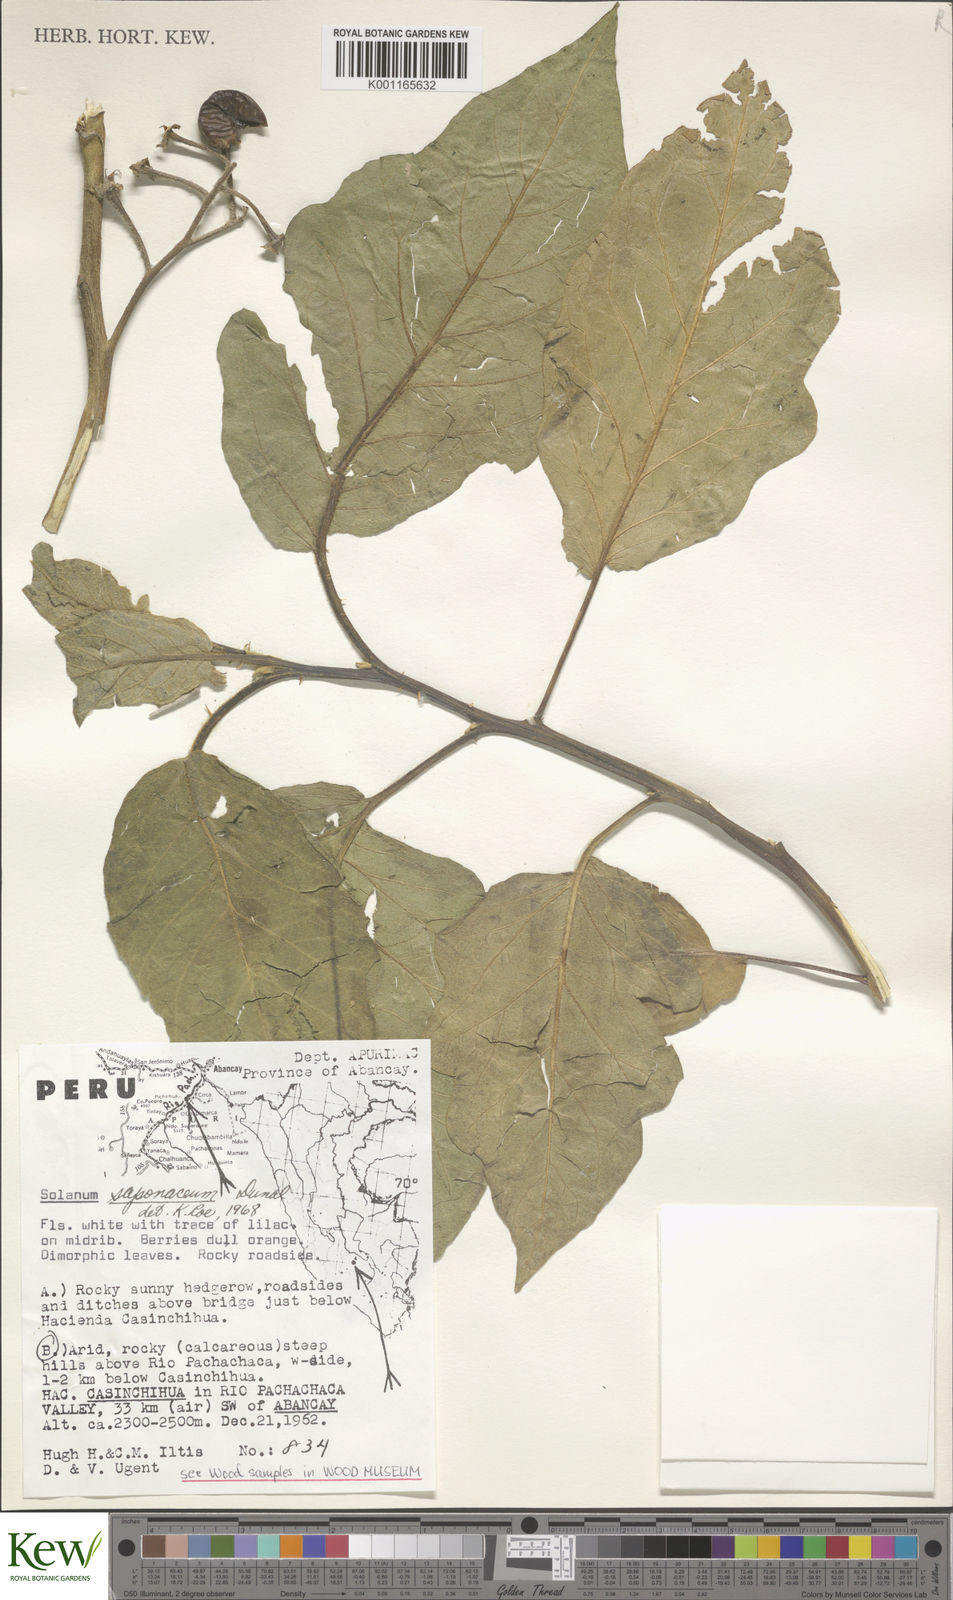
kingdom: Plantae
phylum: Tracheophyta
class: Magnoliopsida
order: Solanales
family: Solanaceae
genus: Solanum
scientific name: Solanum saponaceum
